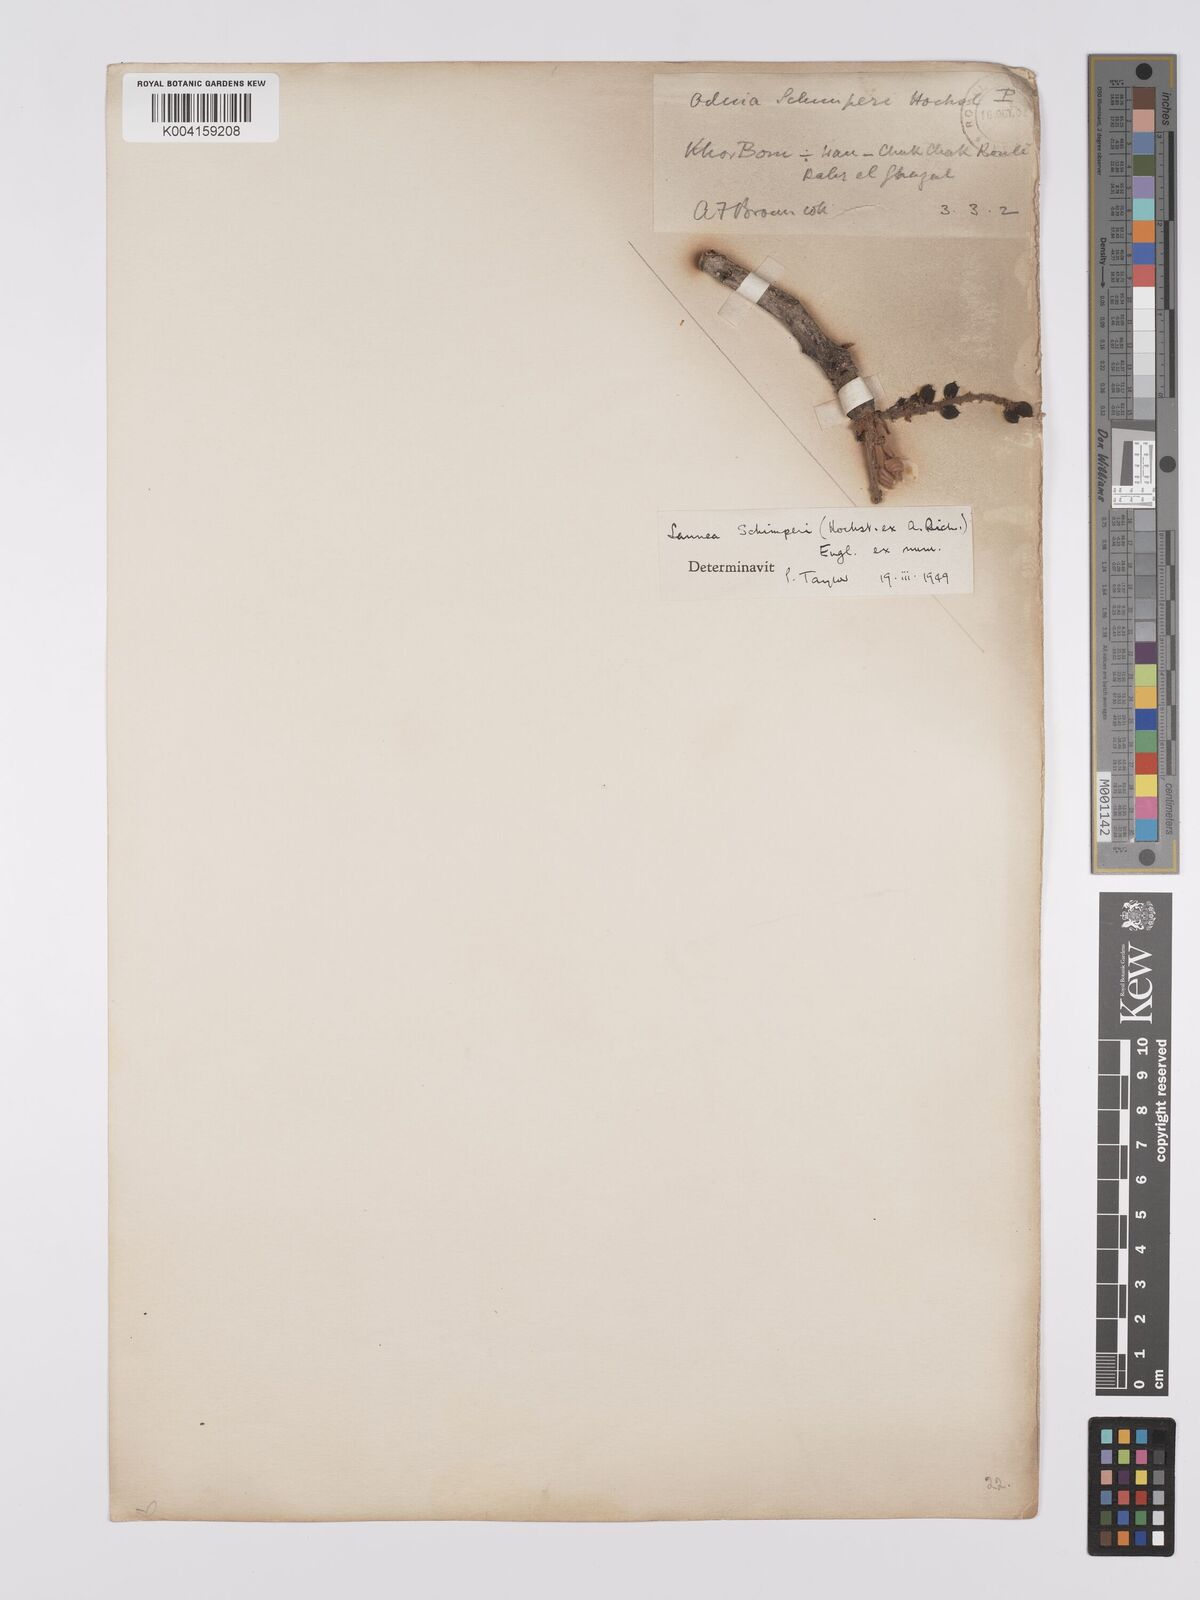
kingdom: Plantae
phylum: Tracheophyta
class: Magnoliopsida
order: Sapindales
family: Anacardiaceae
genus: Lannea
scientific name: Lannea schimperi
